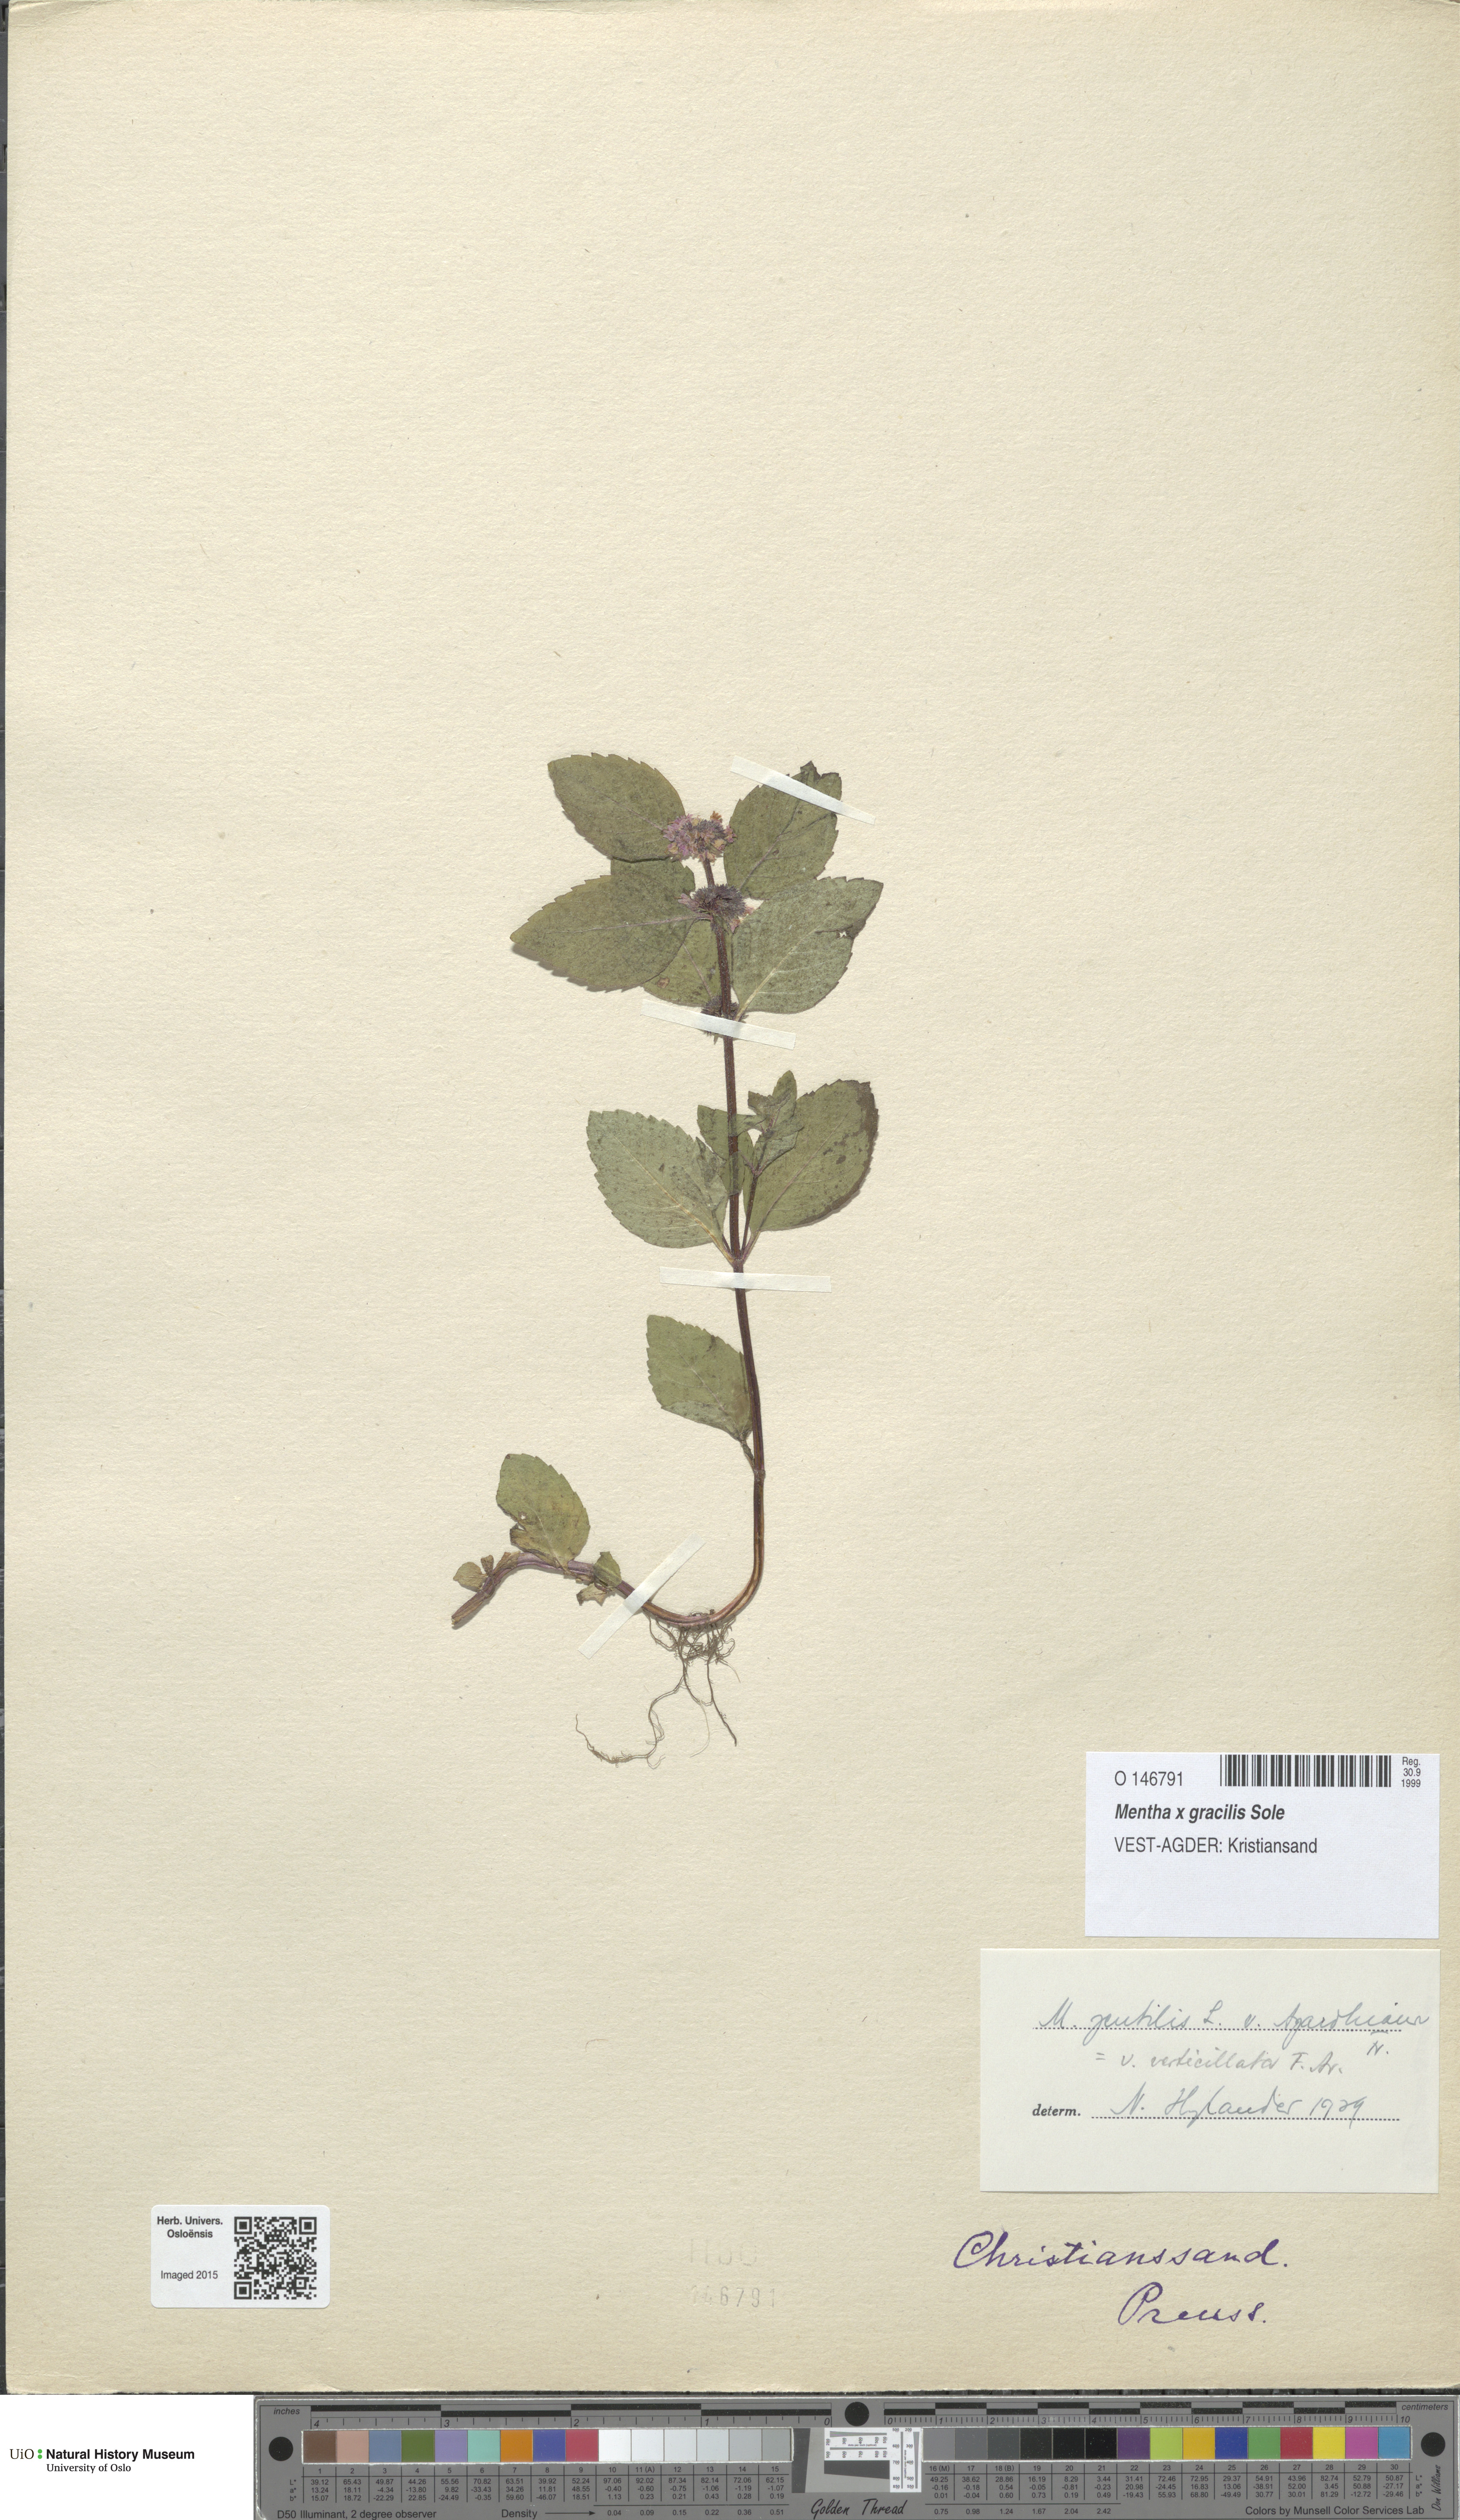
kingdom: Plantae
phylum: Tracheophyta
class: Magnoliopsida
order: Lamiales
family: Lamiaceae
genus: Mentha
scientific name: Mentha arvensis
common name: Corn mint
